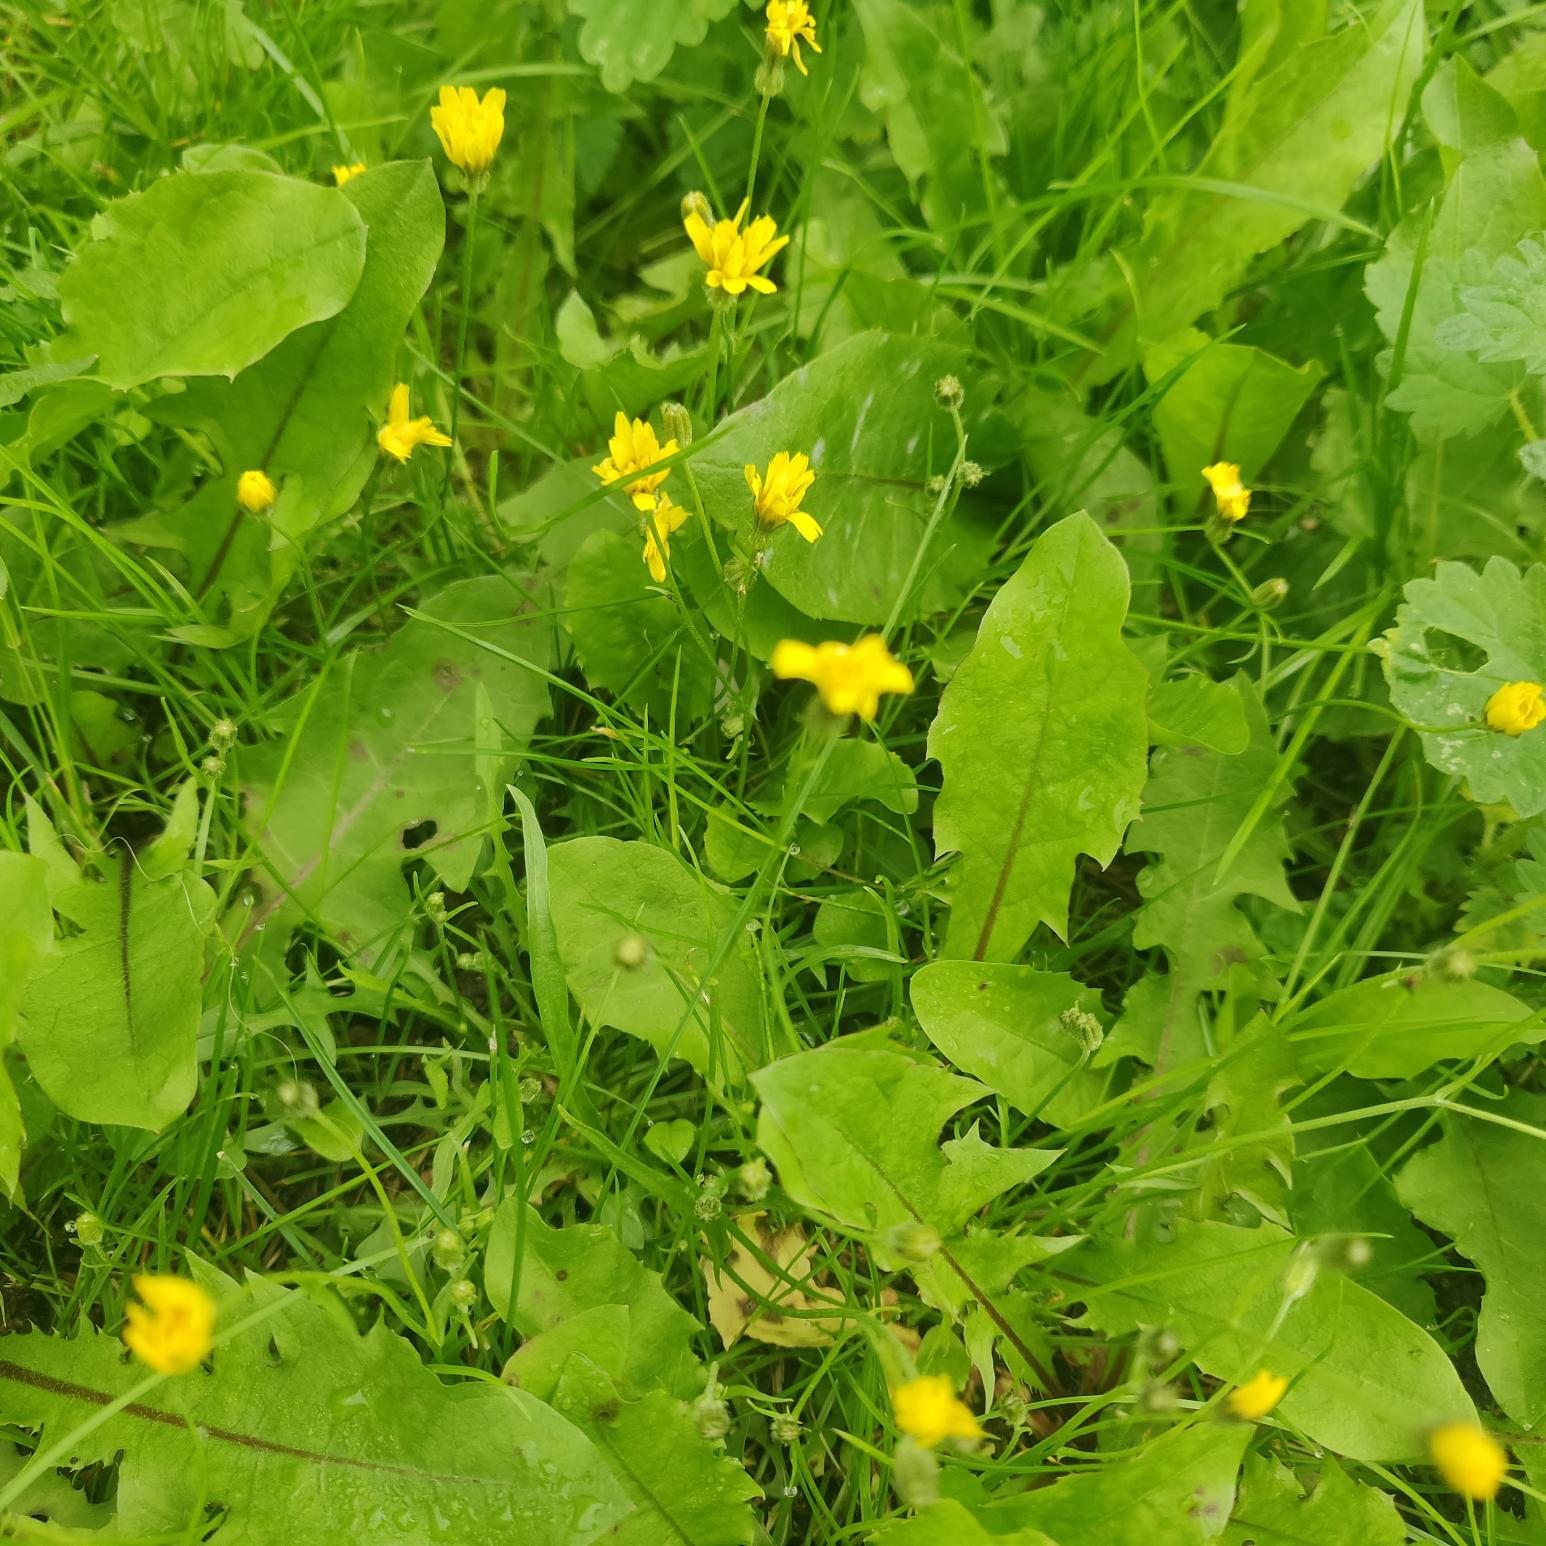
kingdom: Plantae
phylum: Tracheophyta
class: Magnoliopsida
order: Asterales
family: Asteraceae
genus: Crepis
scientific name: Crepis capillaris
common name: Grøn høgeskæg
